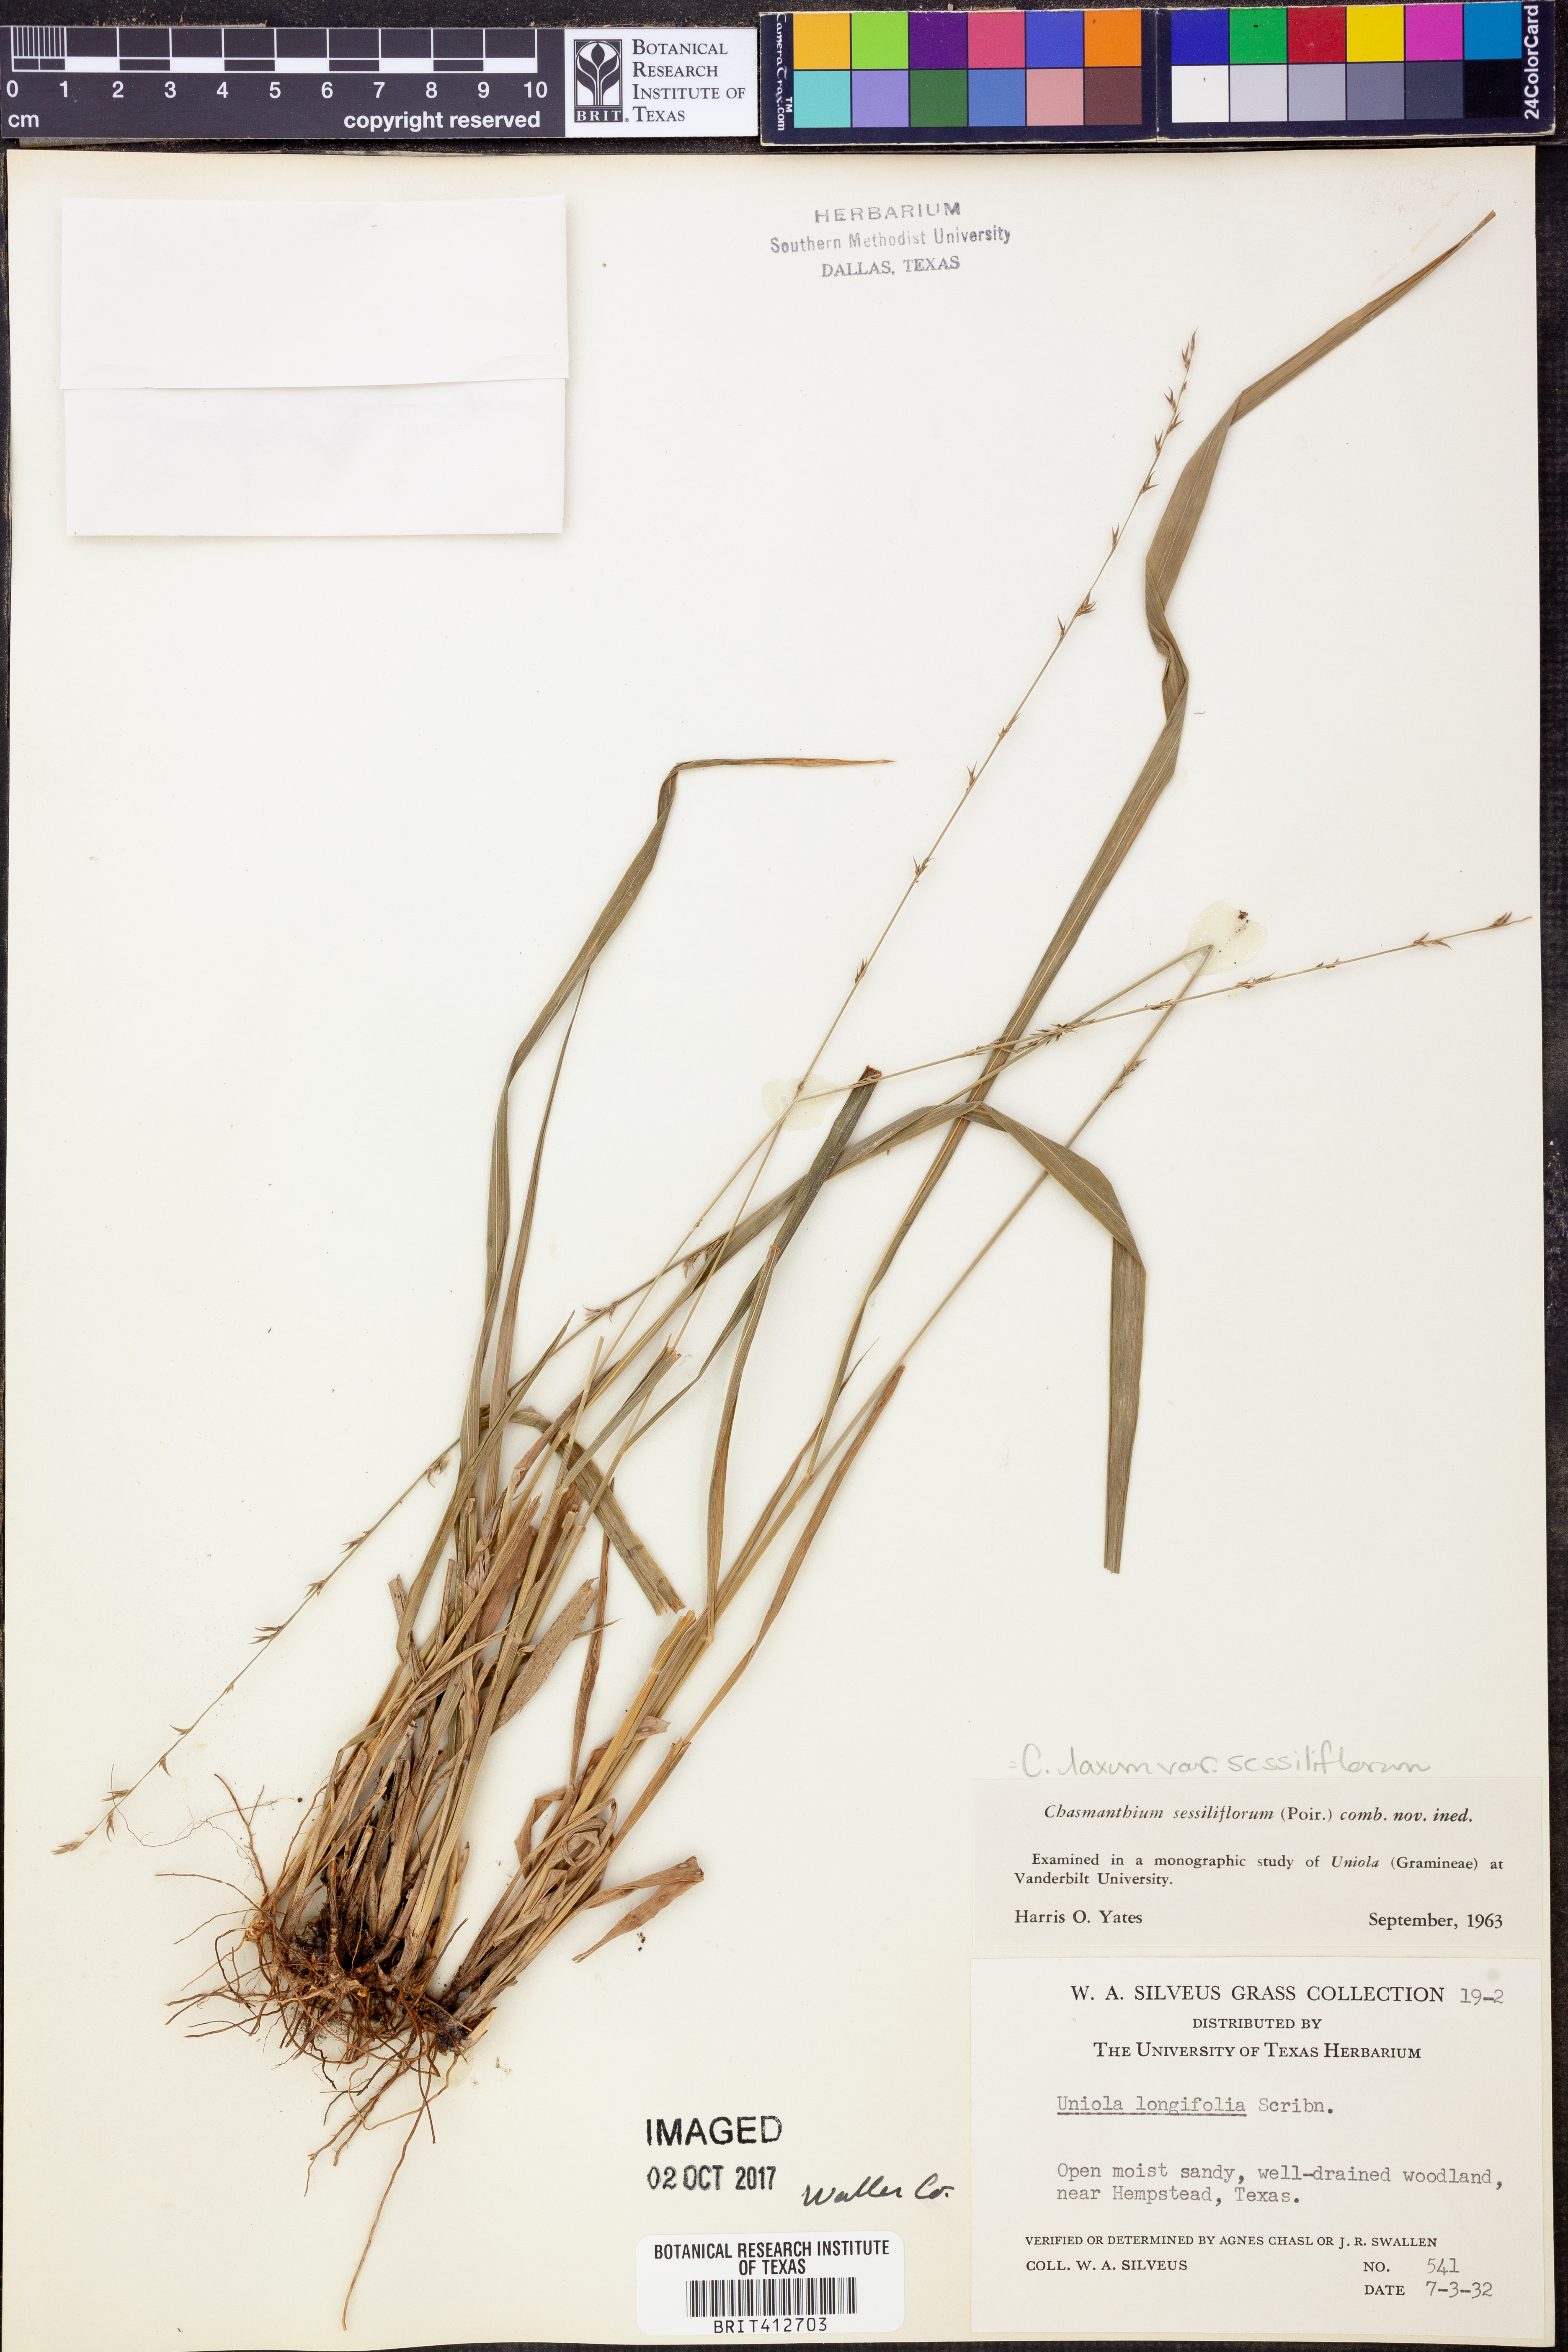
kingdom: Plantae
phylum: Tracheophyta
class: Liliopsida
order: Poales
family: Poaceae
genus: Chasmanthium
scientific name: Chasmanthium laxum
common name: Slender chasmanthium
